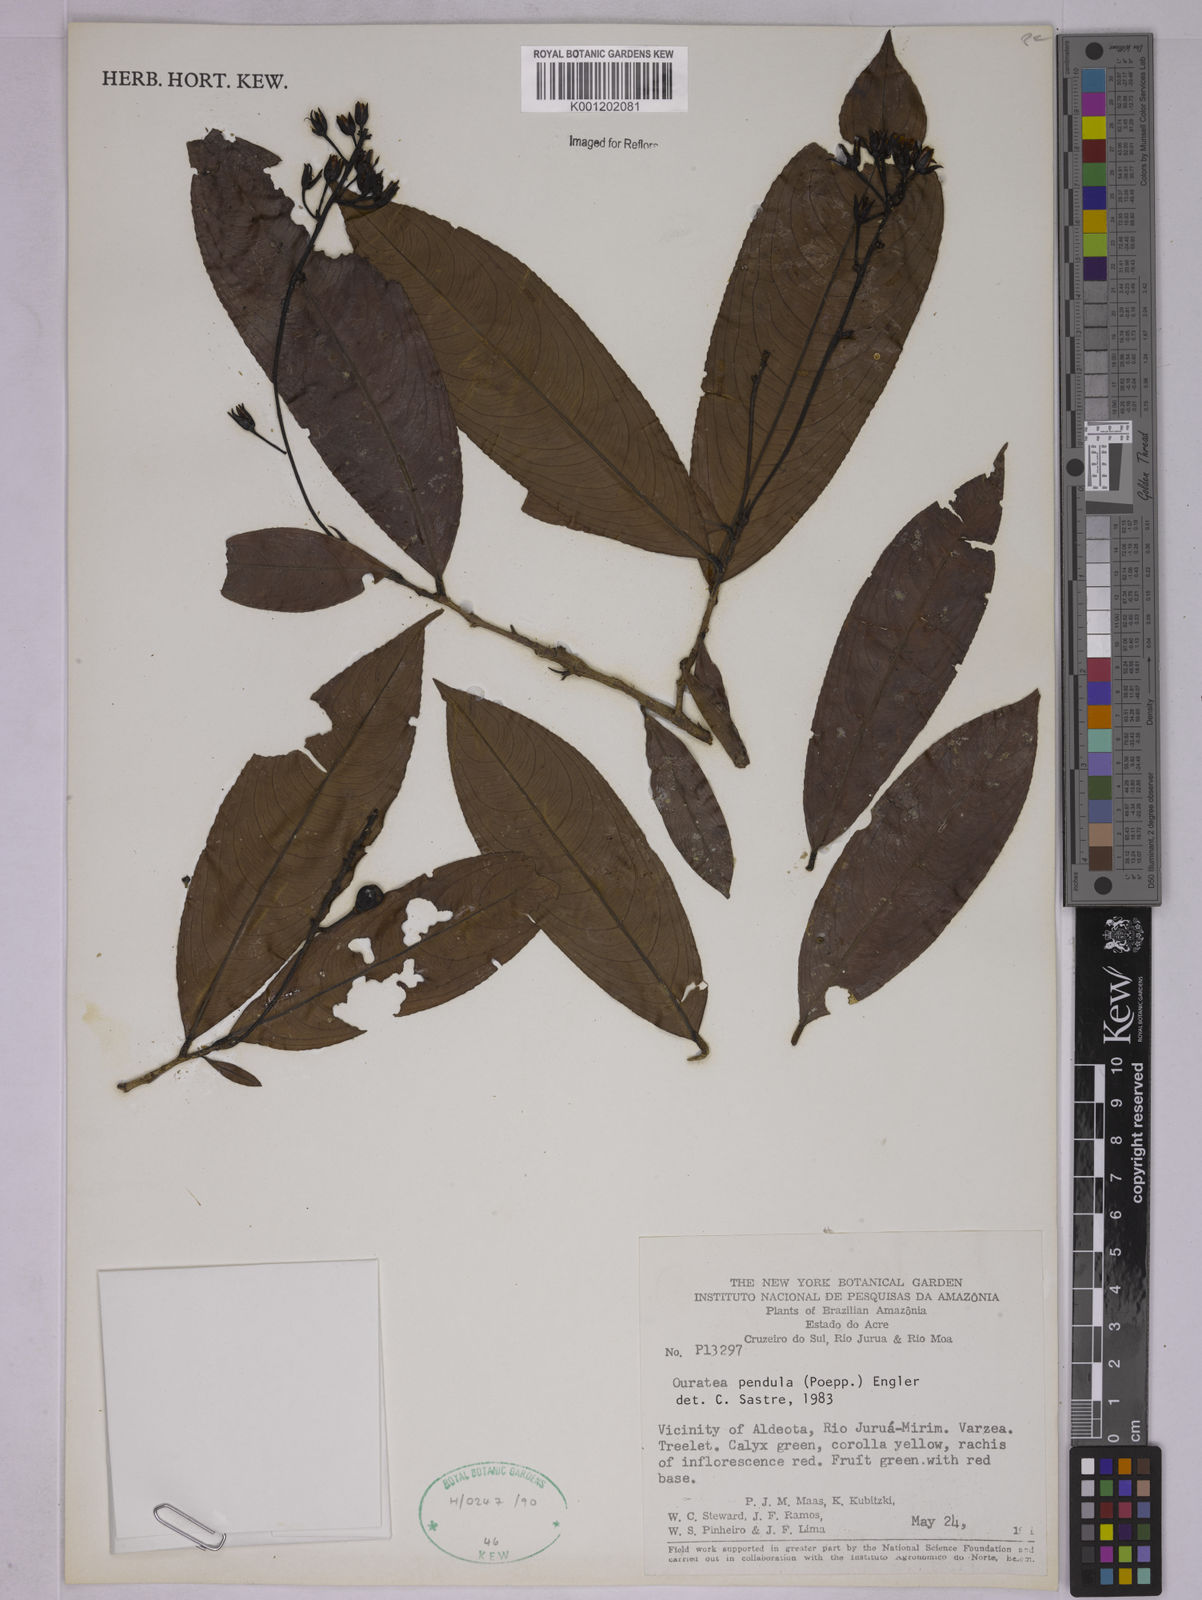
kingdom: Plantae
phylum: Tracheophyta
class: Magnoliopsida
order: Malpighiales
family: Ochnaceae
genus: Ouratea
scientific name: Ouratea pendula
